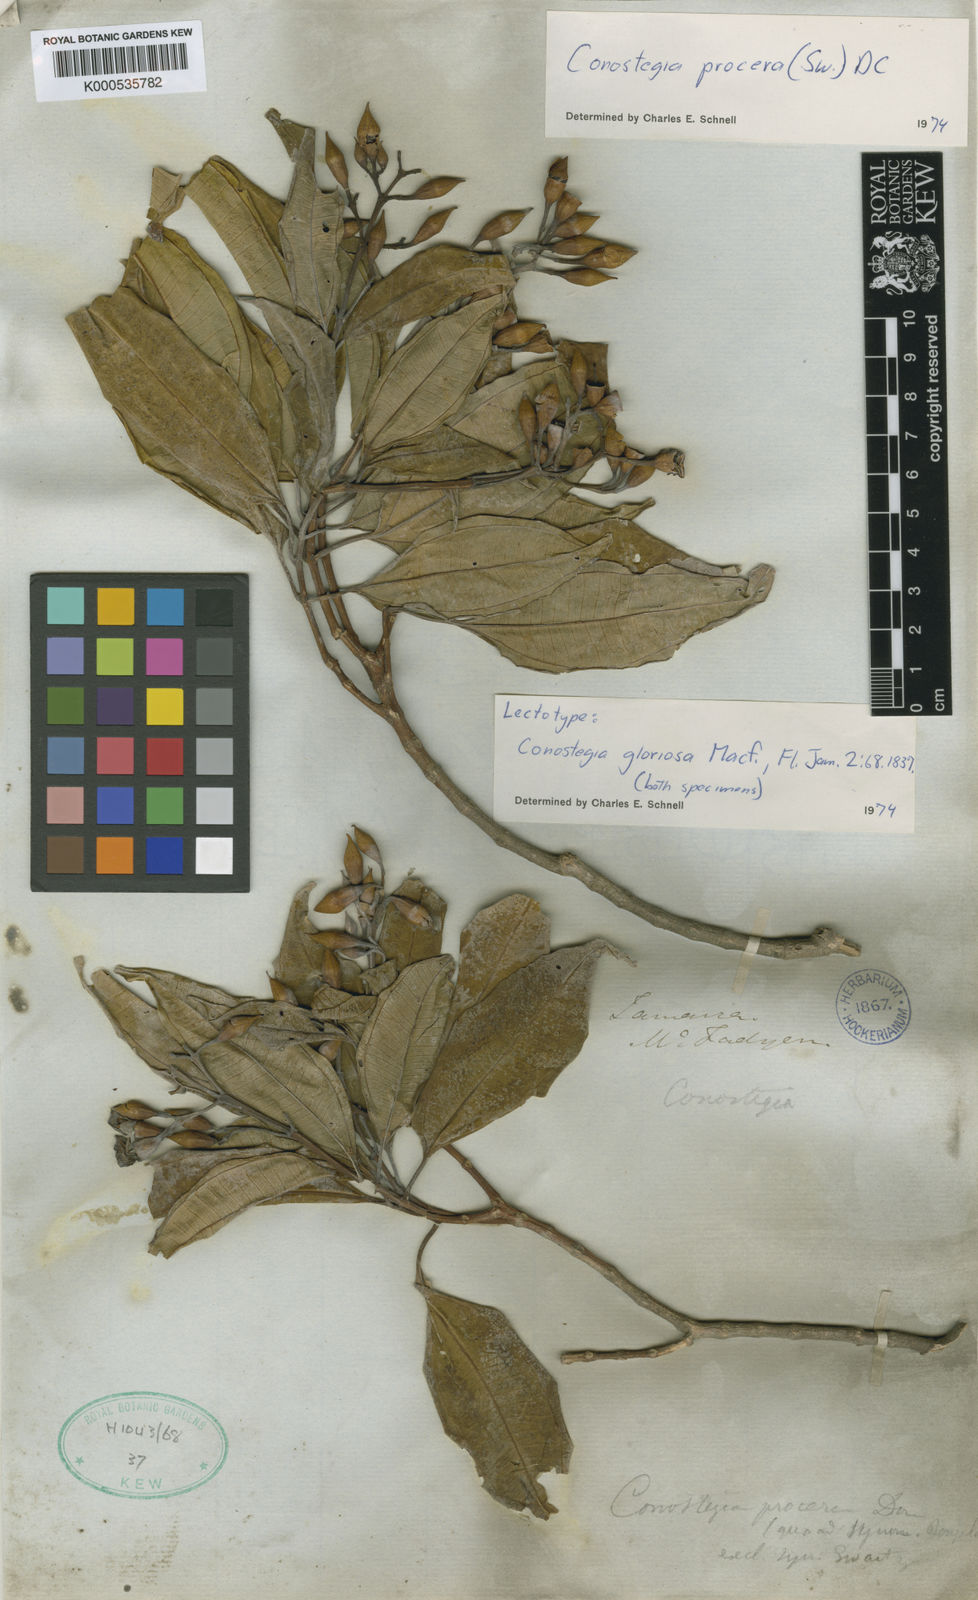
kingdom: Plantae
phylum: Tracheophyta
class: Magnoliopsida
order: Myrtales
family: Melastomataceae
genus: Miconia
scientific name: Miconia gloriosa
